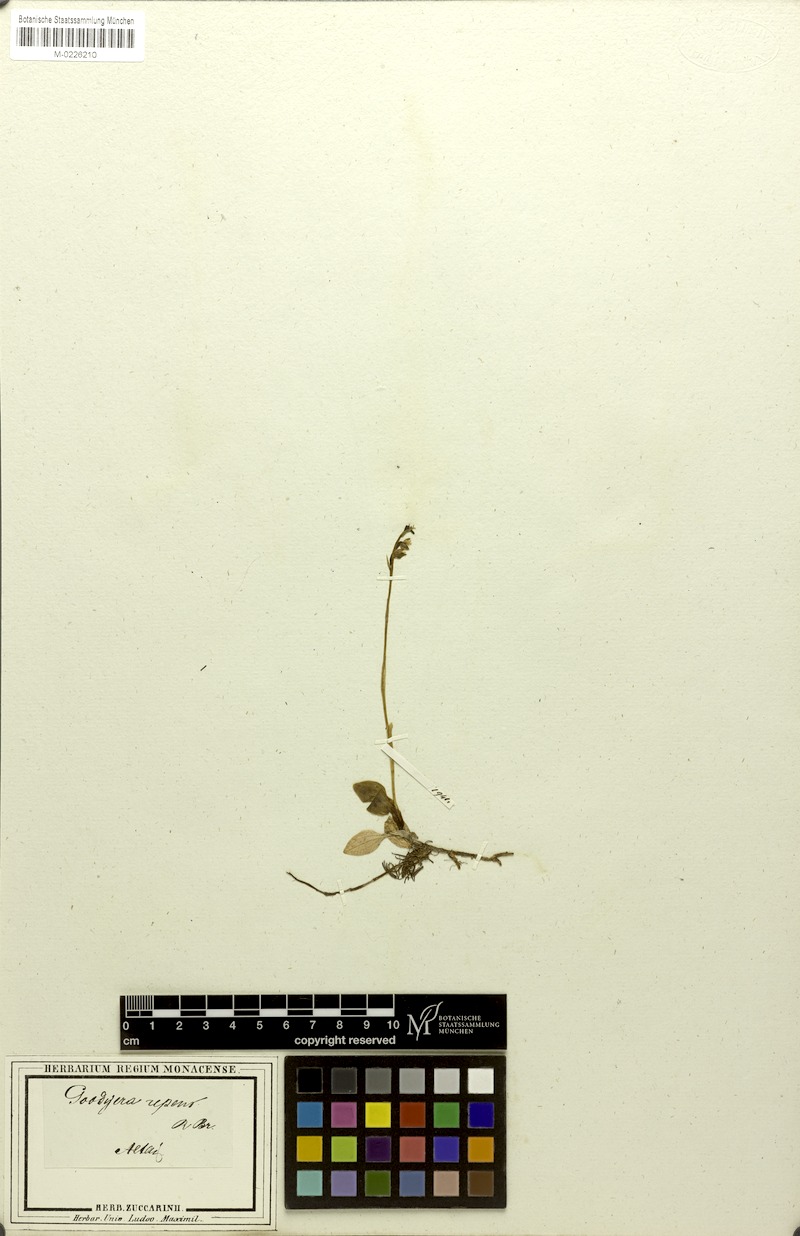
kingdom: Plantae
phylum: Tracheophyta
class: Liliopsida
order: Asparagales
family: Orchidaceae
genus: Goodyera
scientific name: Goodyera repens
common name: Creeping lady's-tresses
